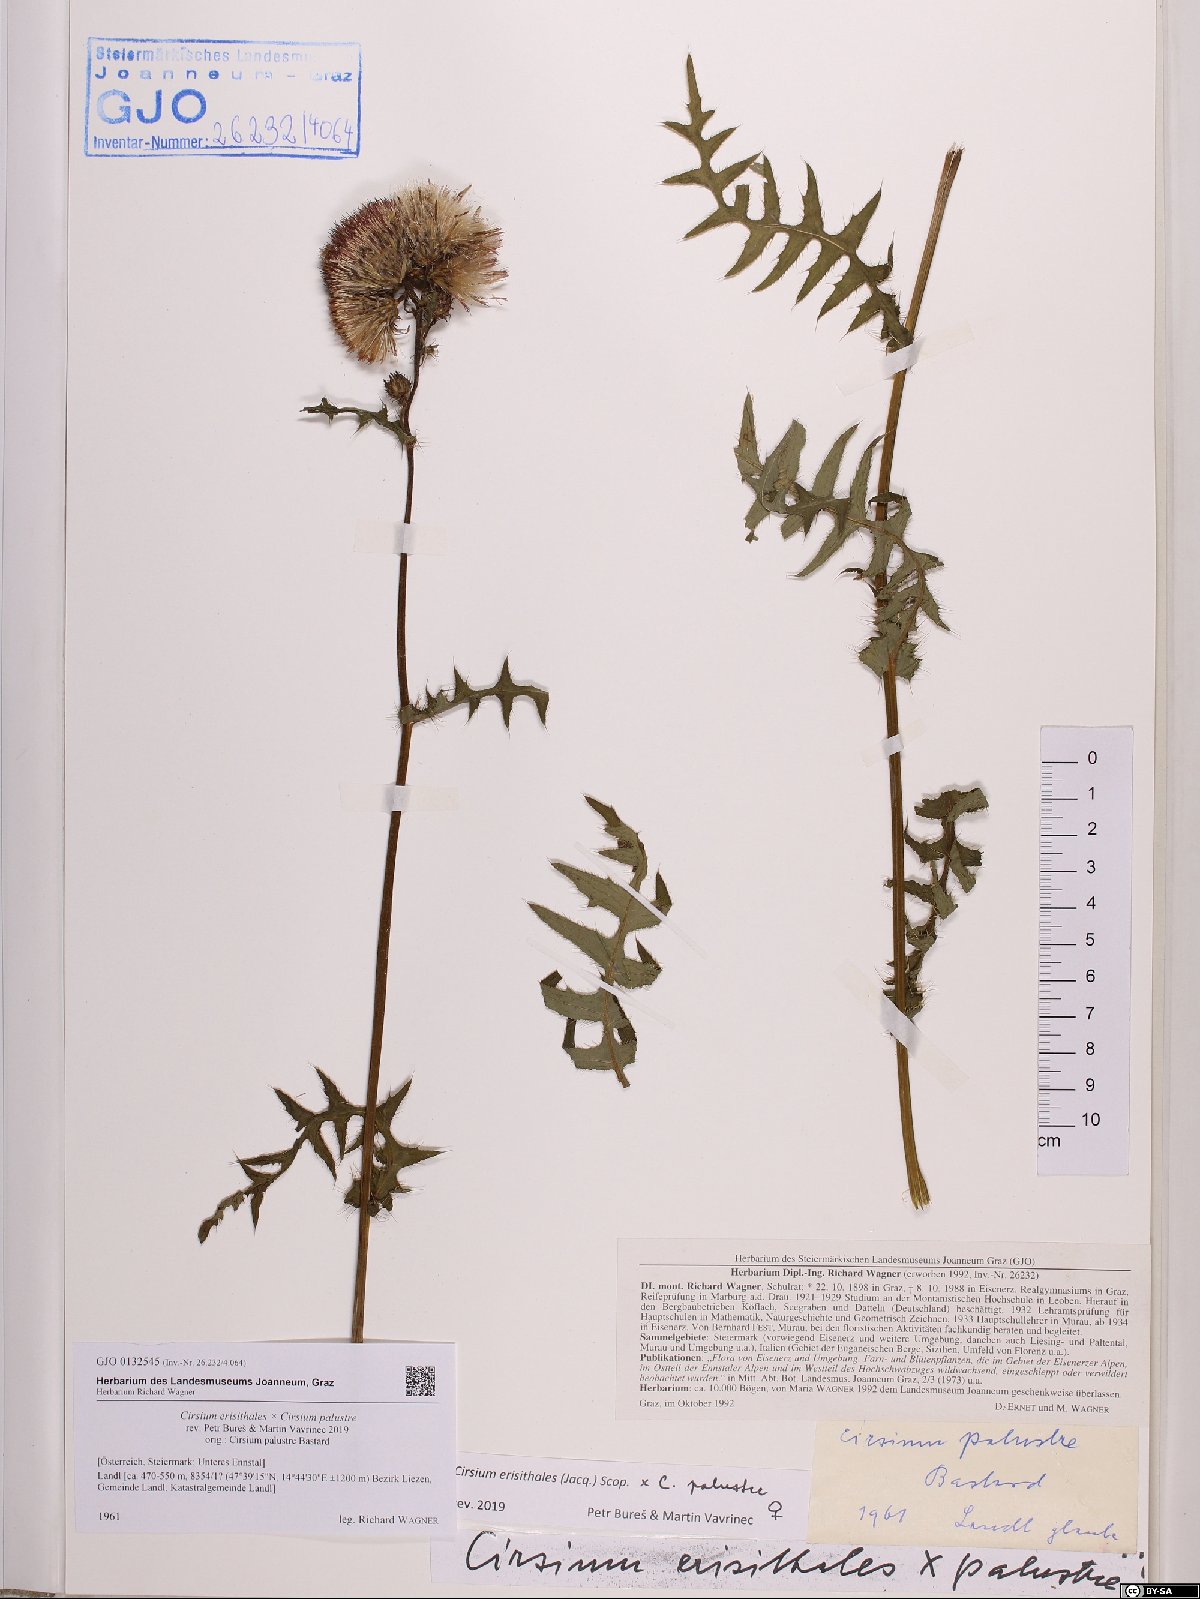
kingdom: Plantae
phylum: Tracheophyta
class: Magnoliopsida
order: Asterales
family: Asteraceae
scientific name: Asteraceae
